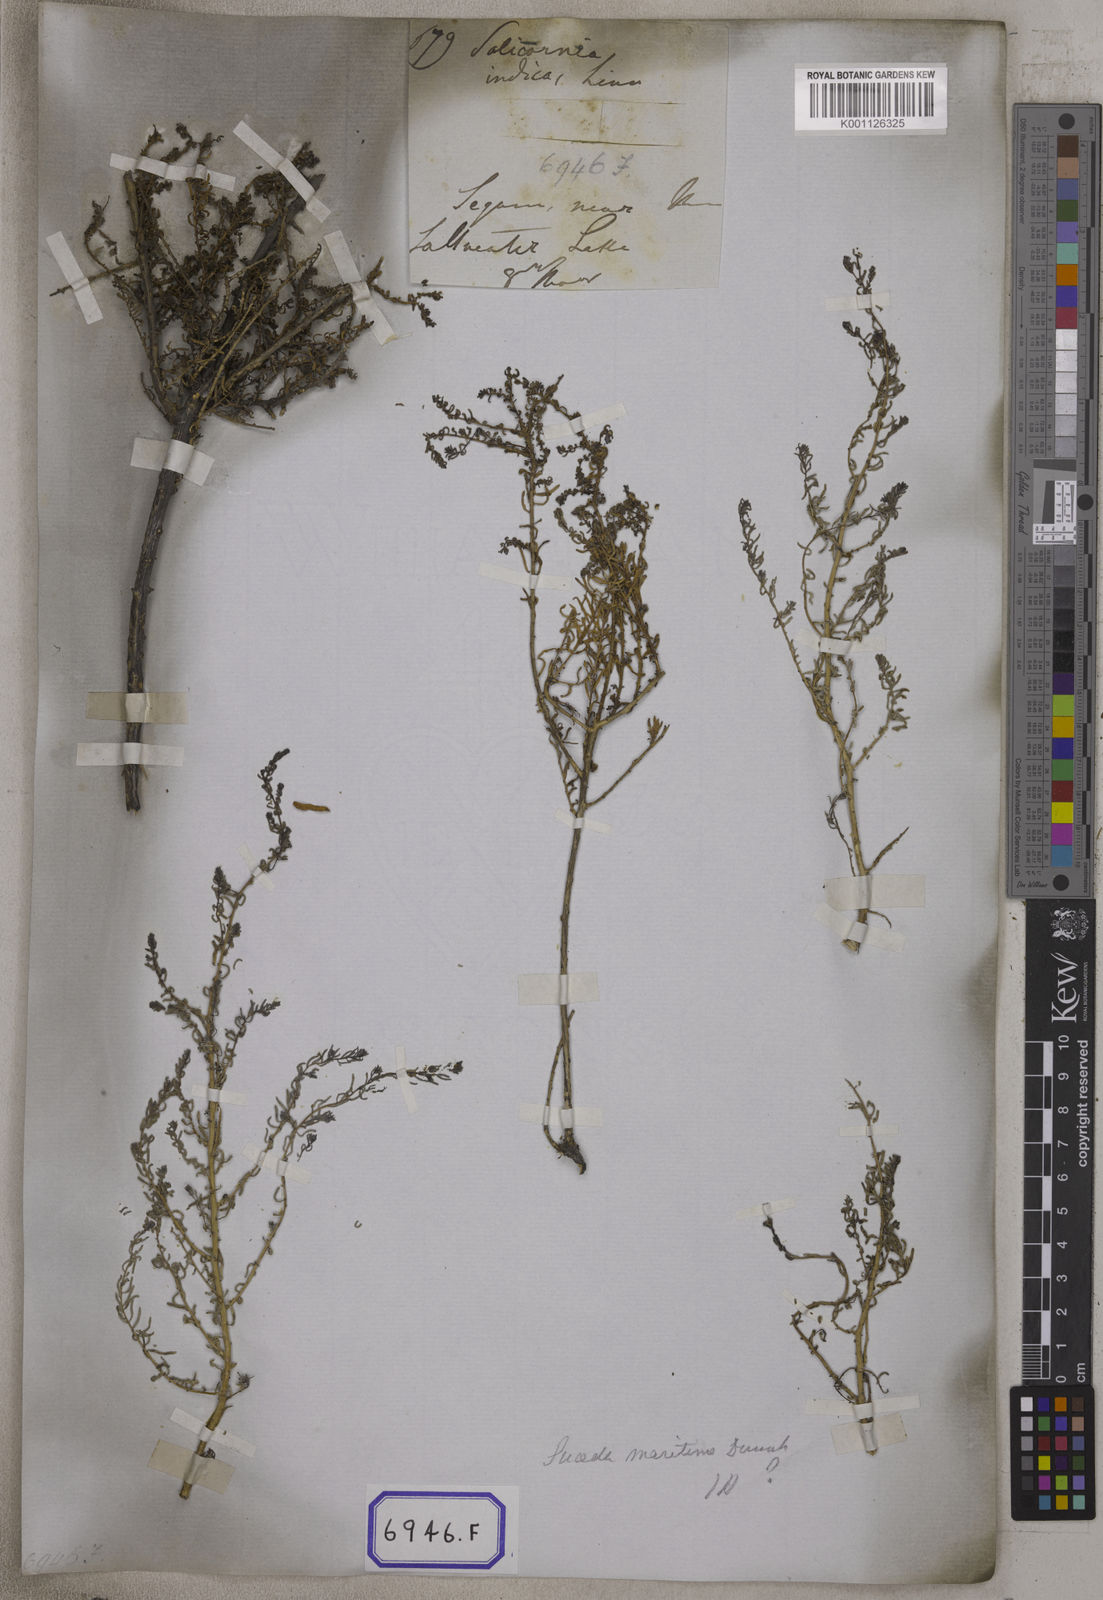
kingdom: Plantae
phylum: Tracheophyta
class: Magnoliopsida
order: Caryophyllales
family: Amaranthaceae
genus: Suaeda
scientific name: Suaeda vermiculata
